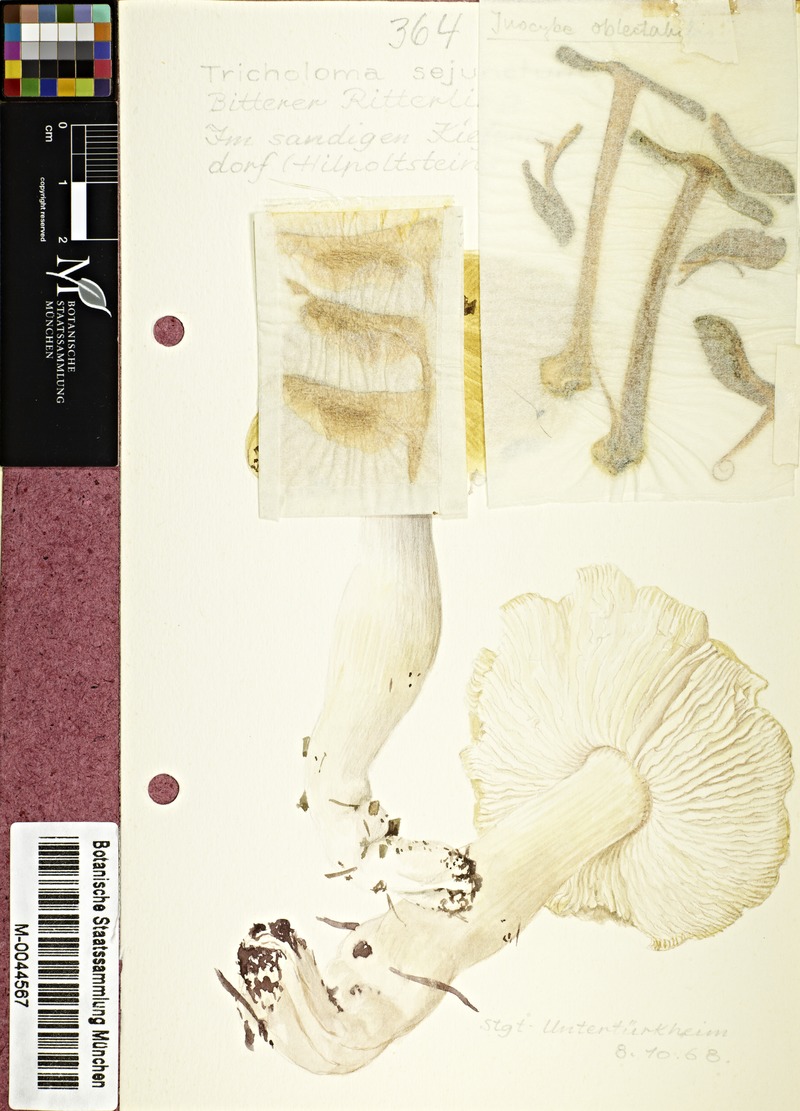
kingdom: Fungi
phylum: Basidiomycota
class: Agaricomycetes
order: Agaricales
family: Tricholomataceae
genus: Tricholoma
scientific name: Tricholoma sejunctum
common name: Deceiving knight
